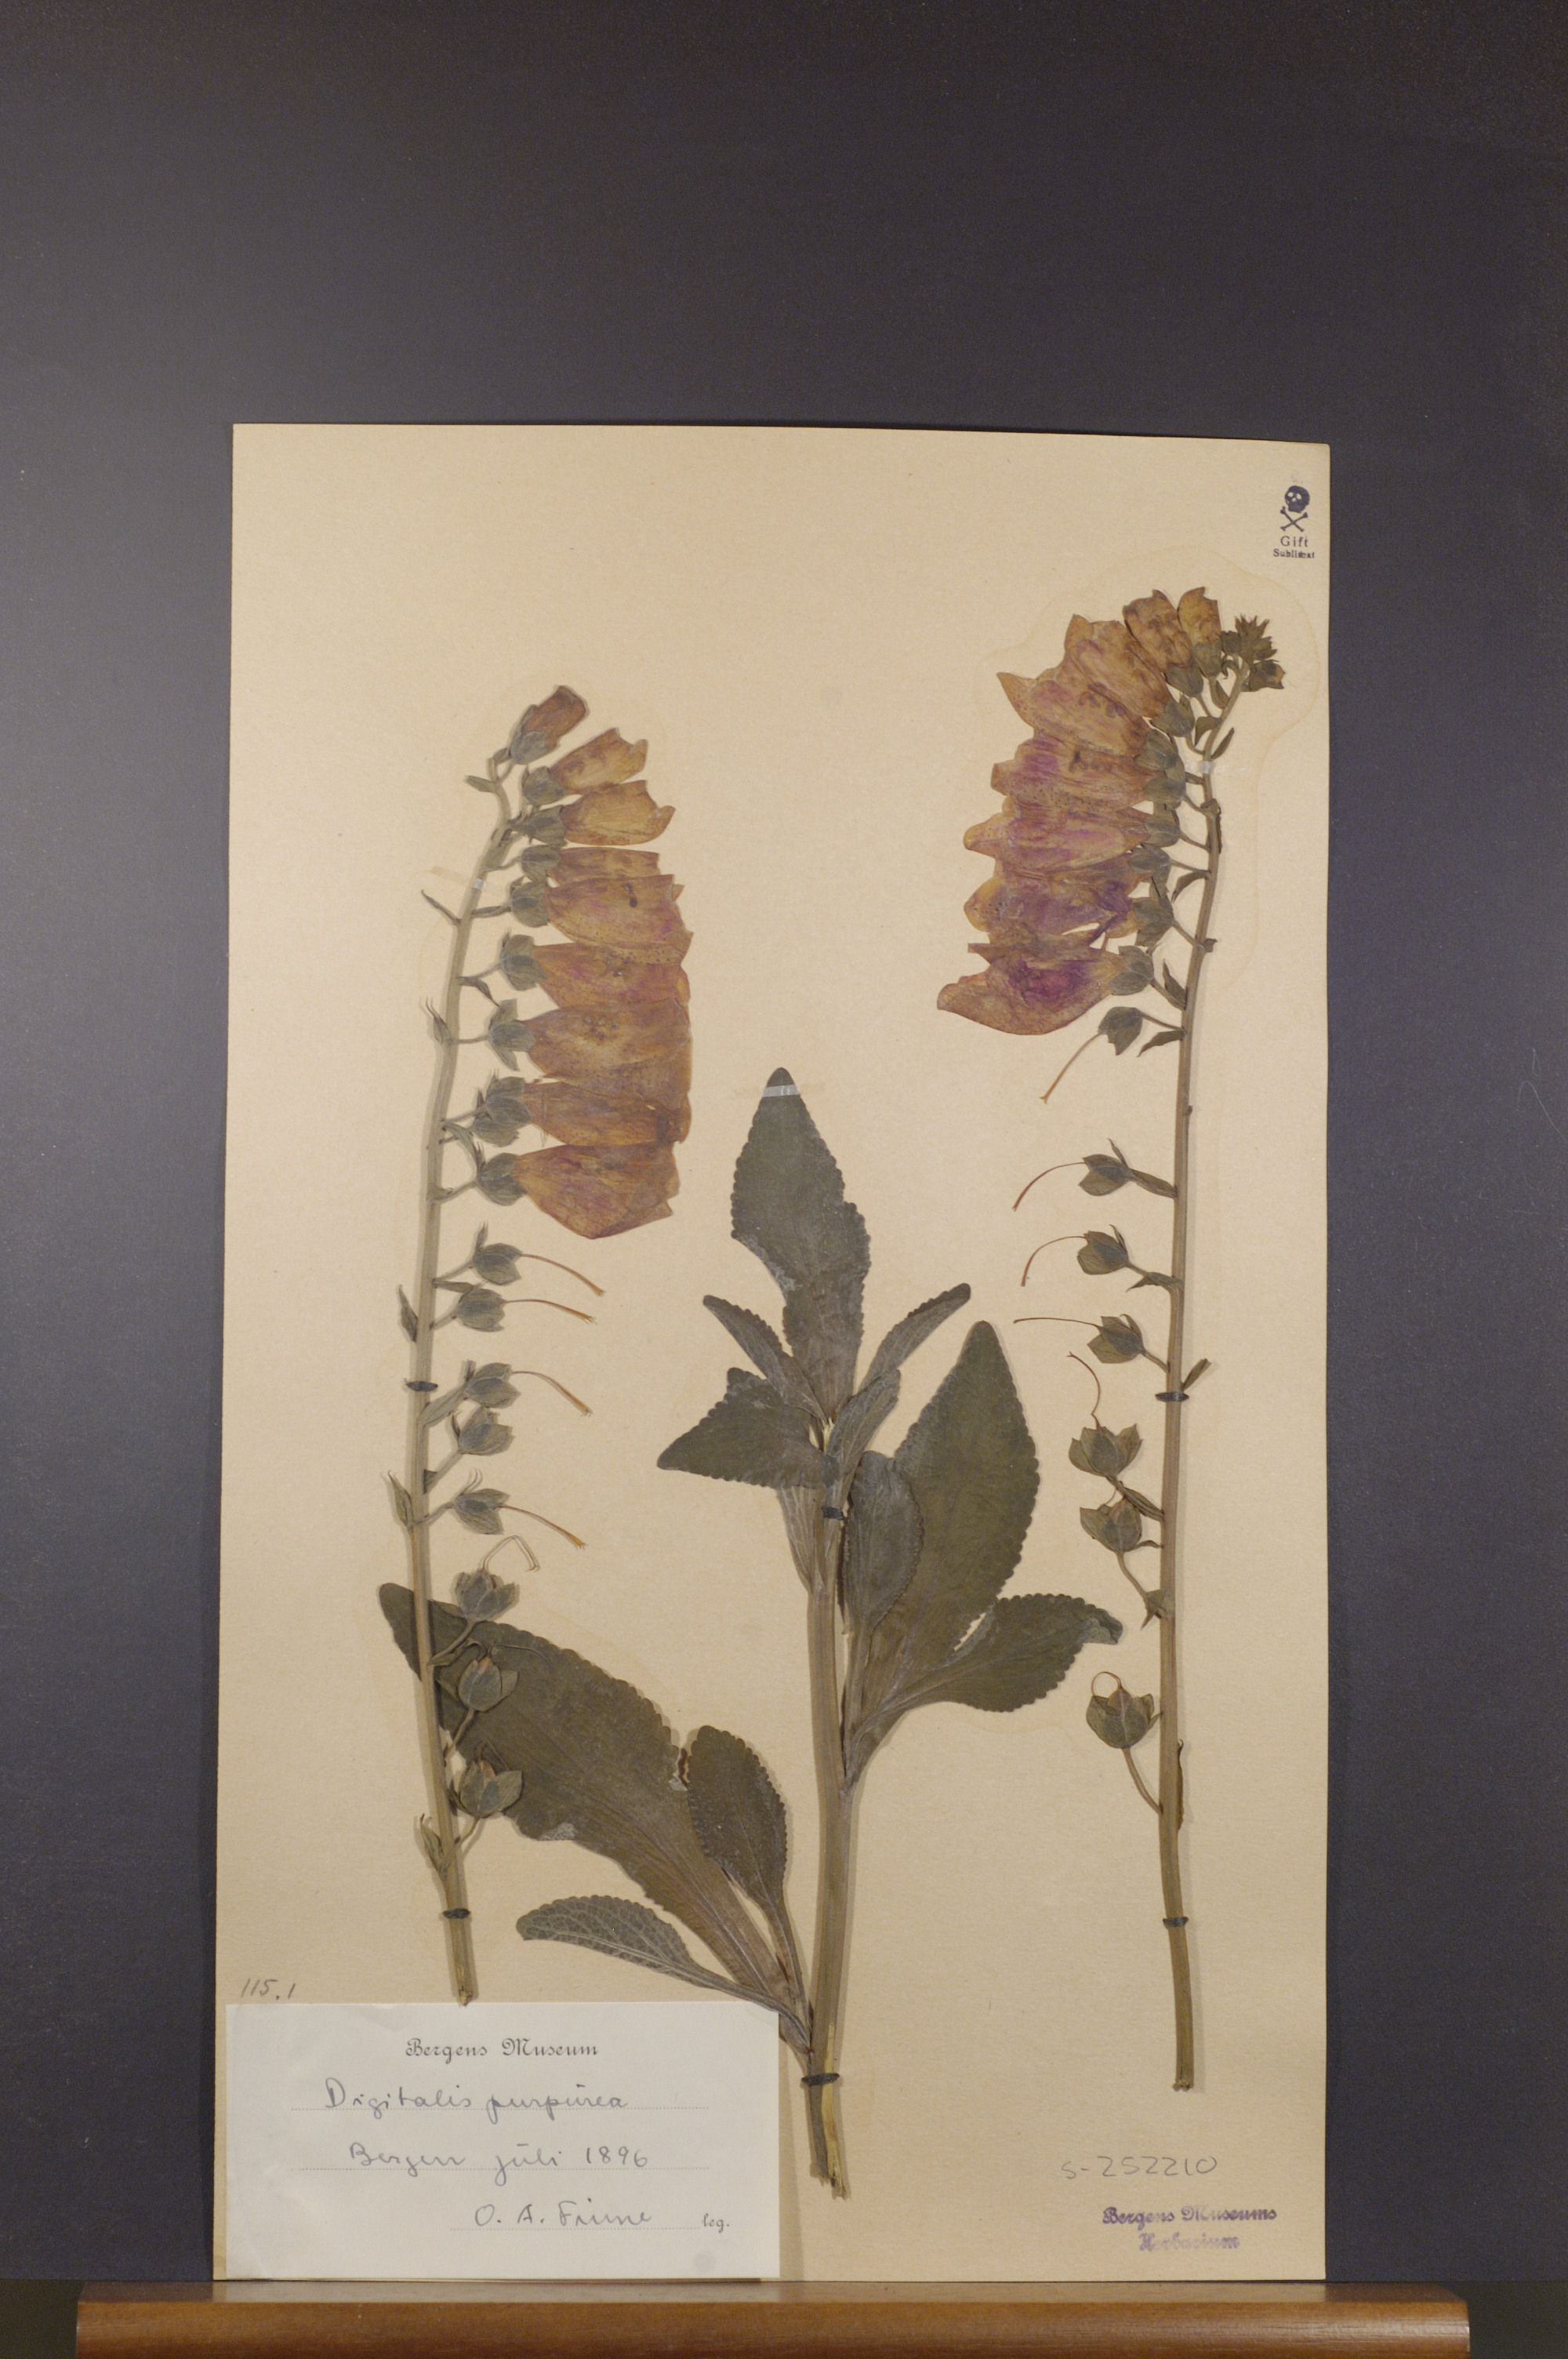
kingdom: Plantae
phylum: Tracheophyta
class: Magnoliopsida
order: Lamiales
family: Plantaginaceae
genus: Digitalis
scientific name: Digitalis purpurea
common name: Foxglove
